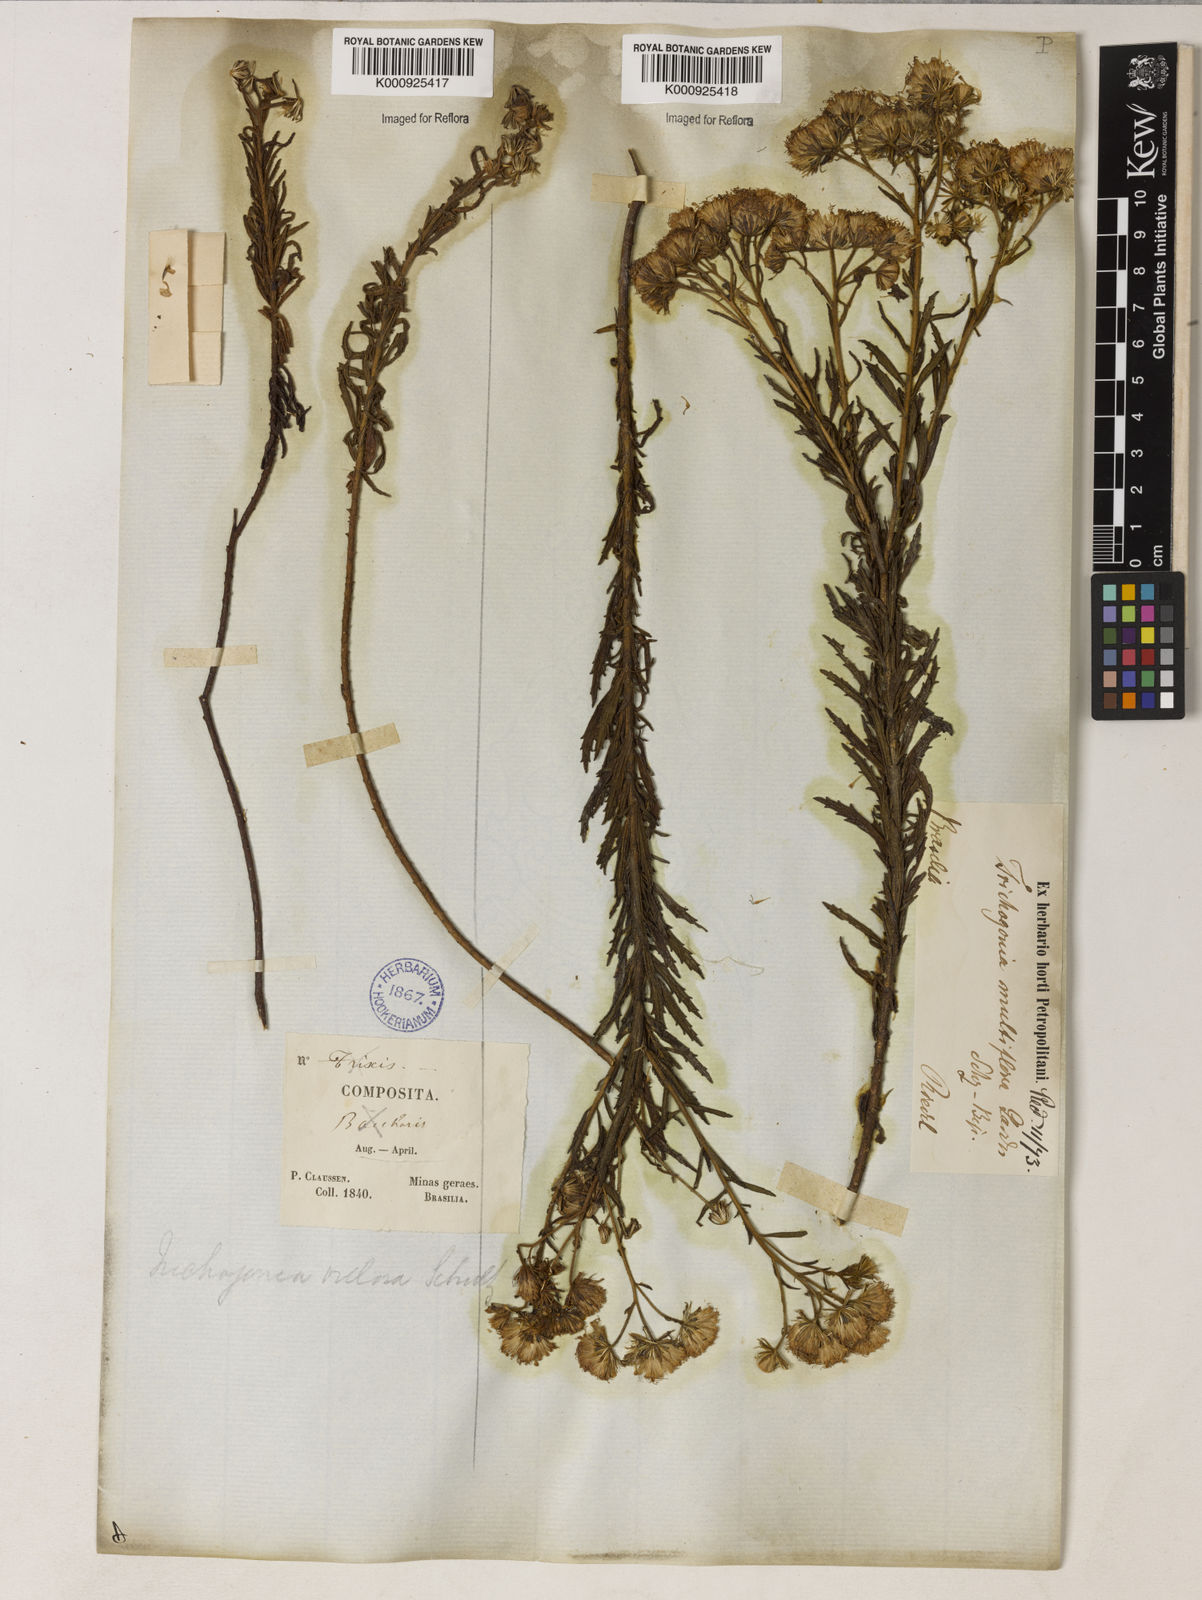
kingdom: Plantae
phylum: Tracheophyta
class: Magnoliopsida
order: Asterales
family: Asteraceae
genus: Trichogonia
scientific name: Trichogonia villosa
